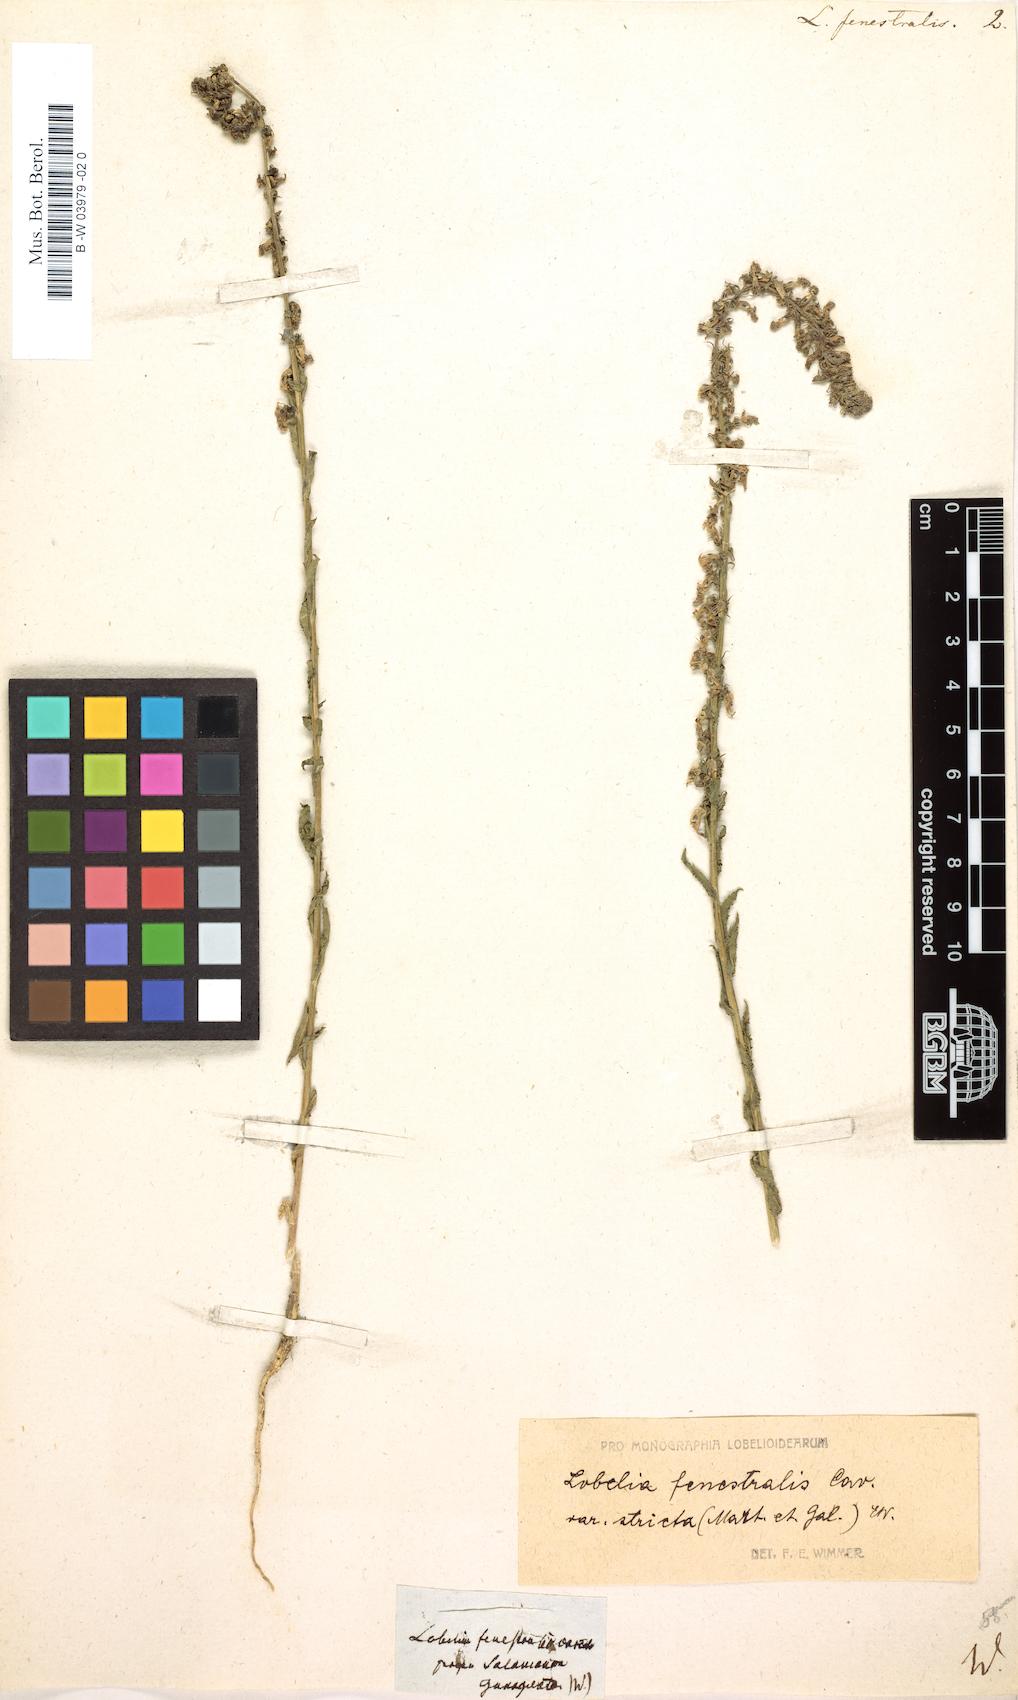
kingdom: Plantae
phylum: Tracheophyta
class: Magnoliopsida
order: Asterales
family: Campanulaceae
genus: Lobelia
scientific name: Lobelia fenestralis
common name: Leafy lobelia
